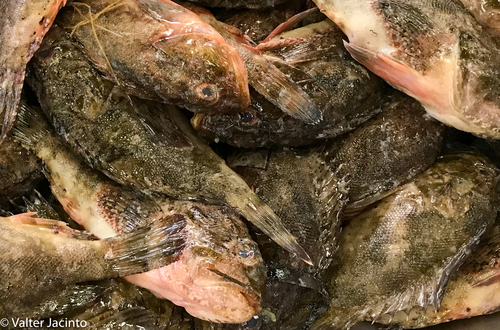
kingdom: Animalia
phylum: Chordata
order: Scorpaeniformes
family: Scorpaenidae
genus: Scorpaena
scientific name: Scorpaena porcus
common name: Black scorpionfish
